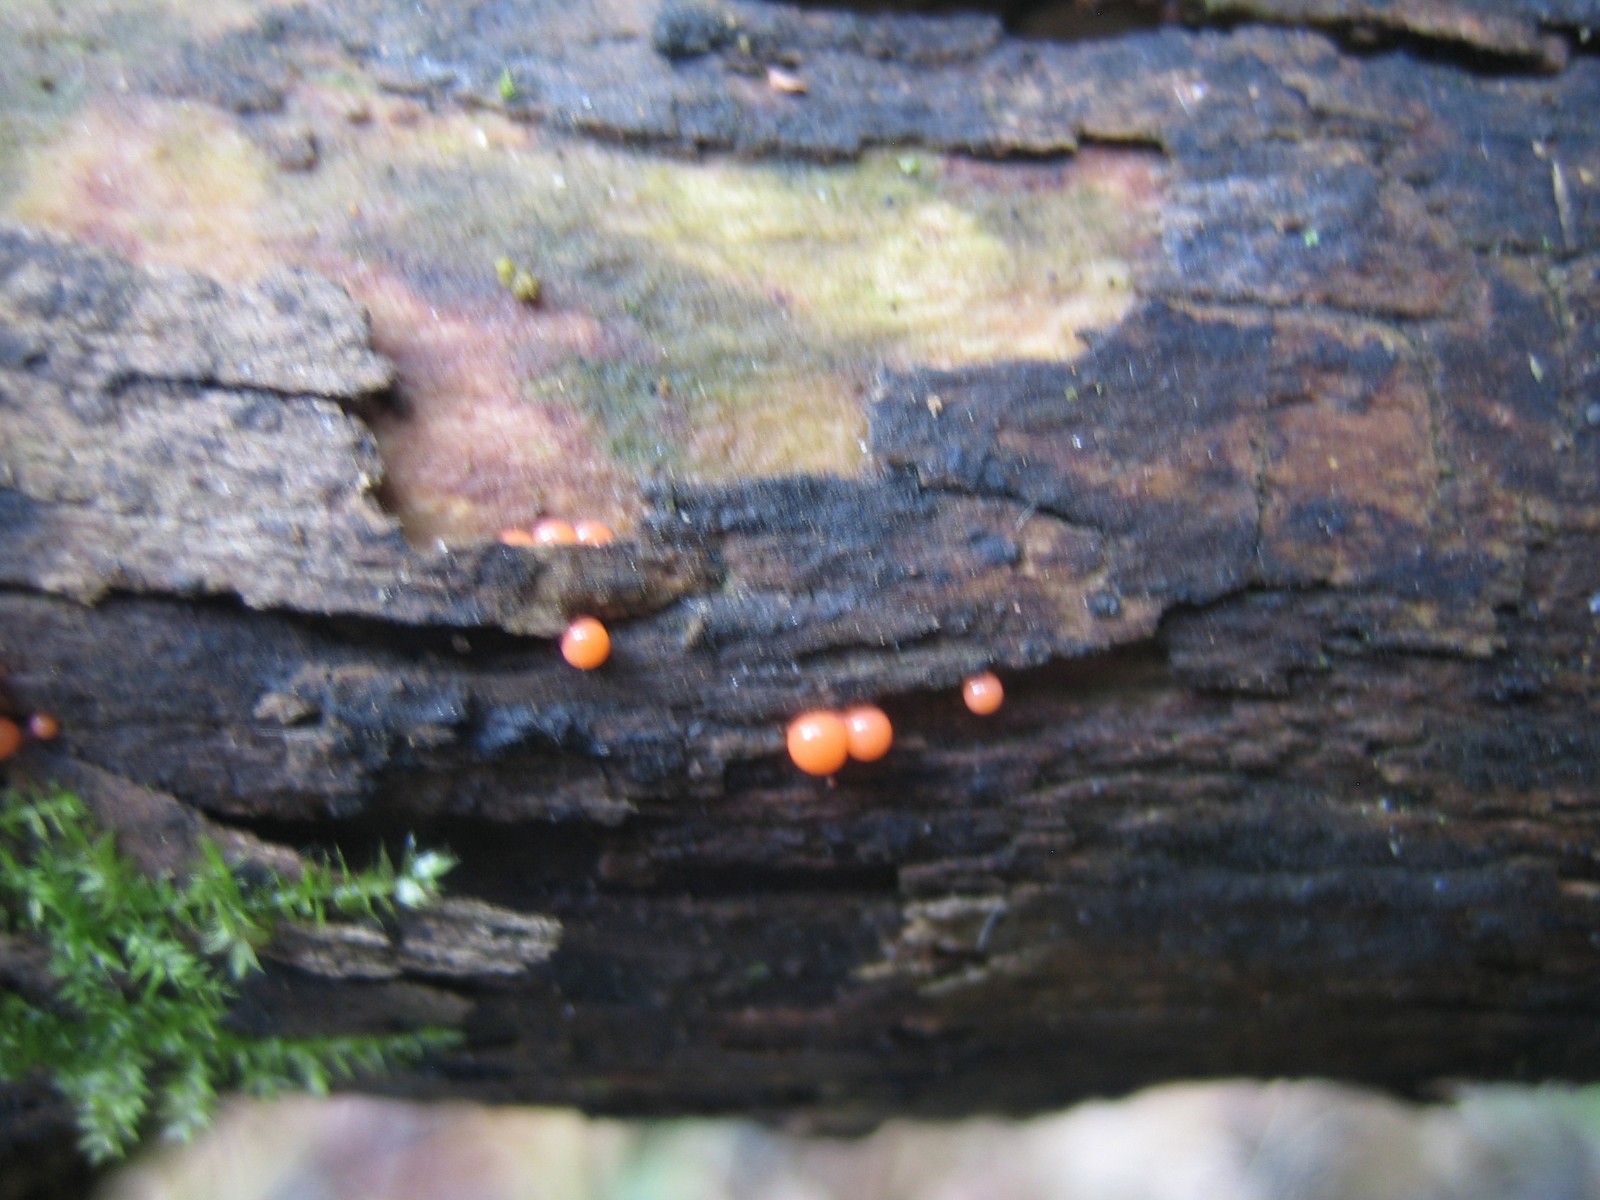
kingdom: Protozoa
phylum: Mycetozoa
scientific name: Mycetozoa
